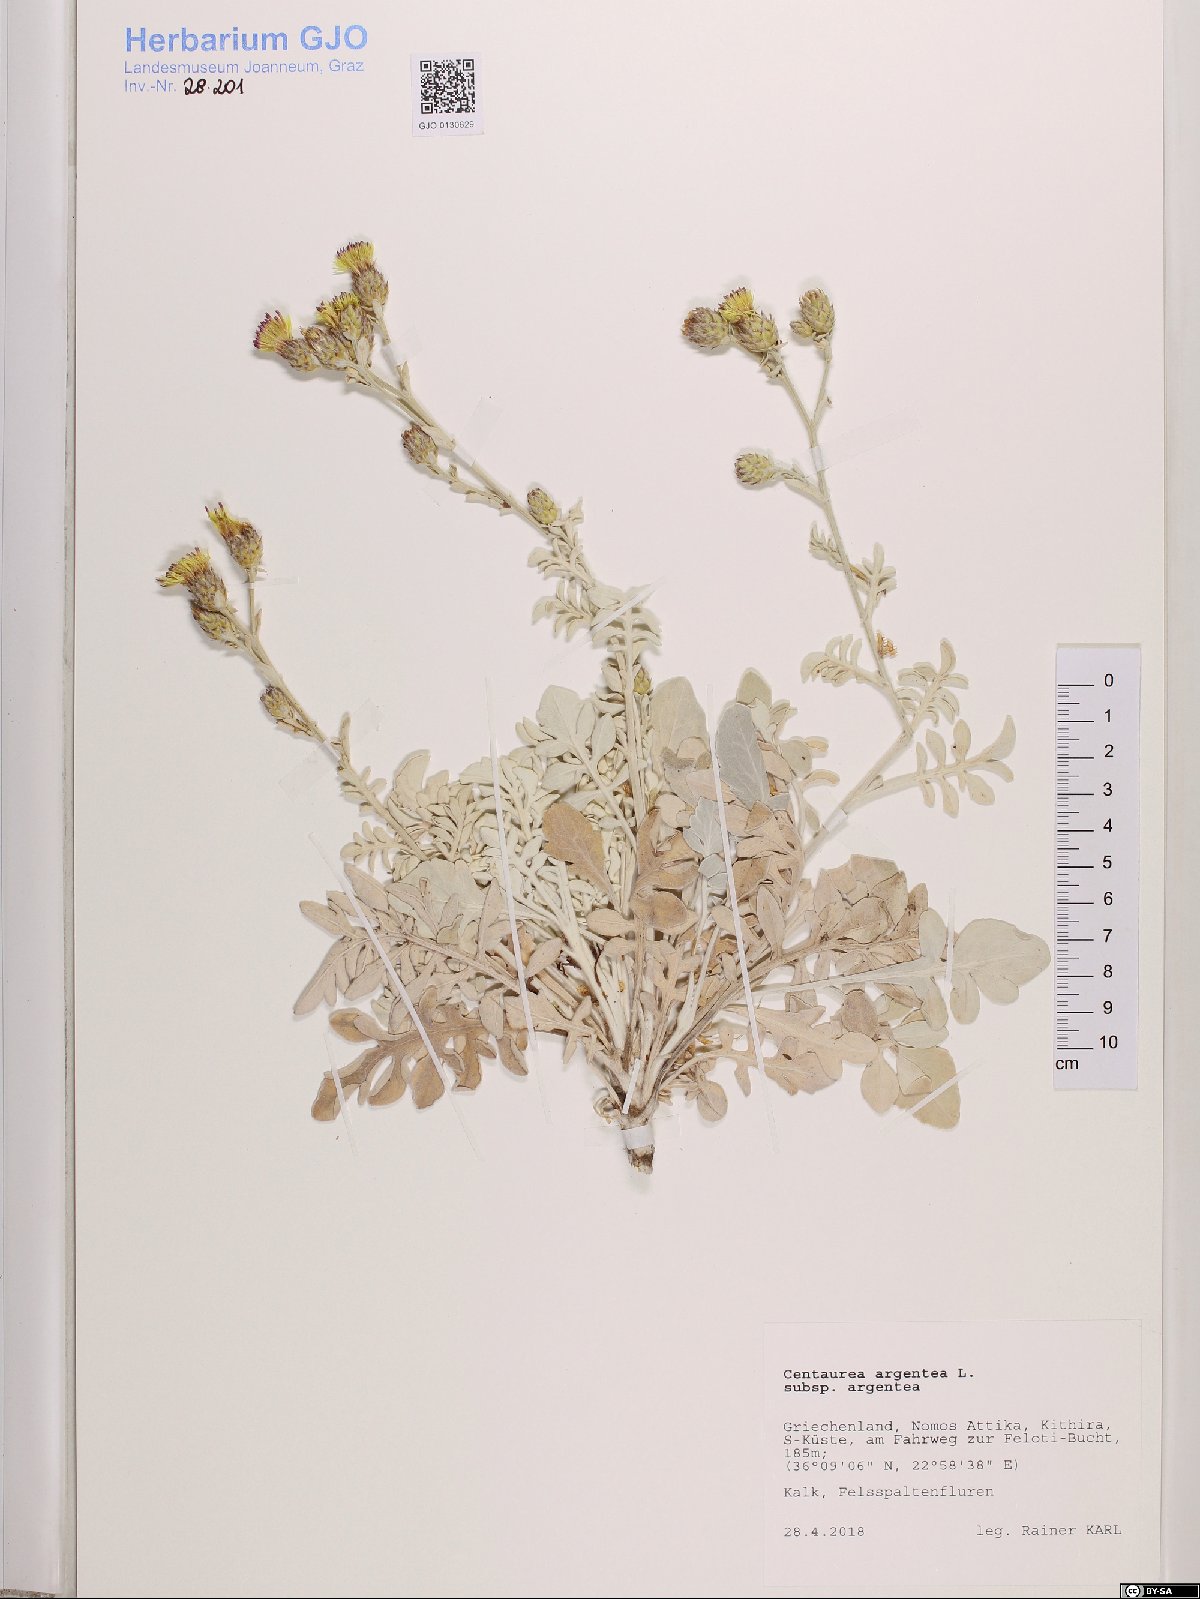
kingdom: Plantae
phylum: Tracheophyta
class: Magnoliopsida
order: Asterales
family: Asteraceae
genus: Centaurea
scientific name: Centaurea argentea
